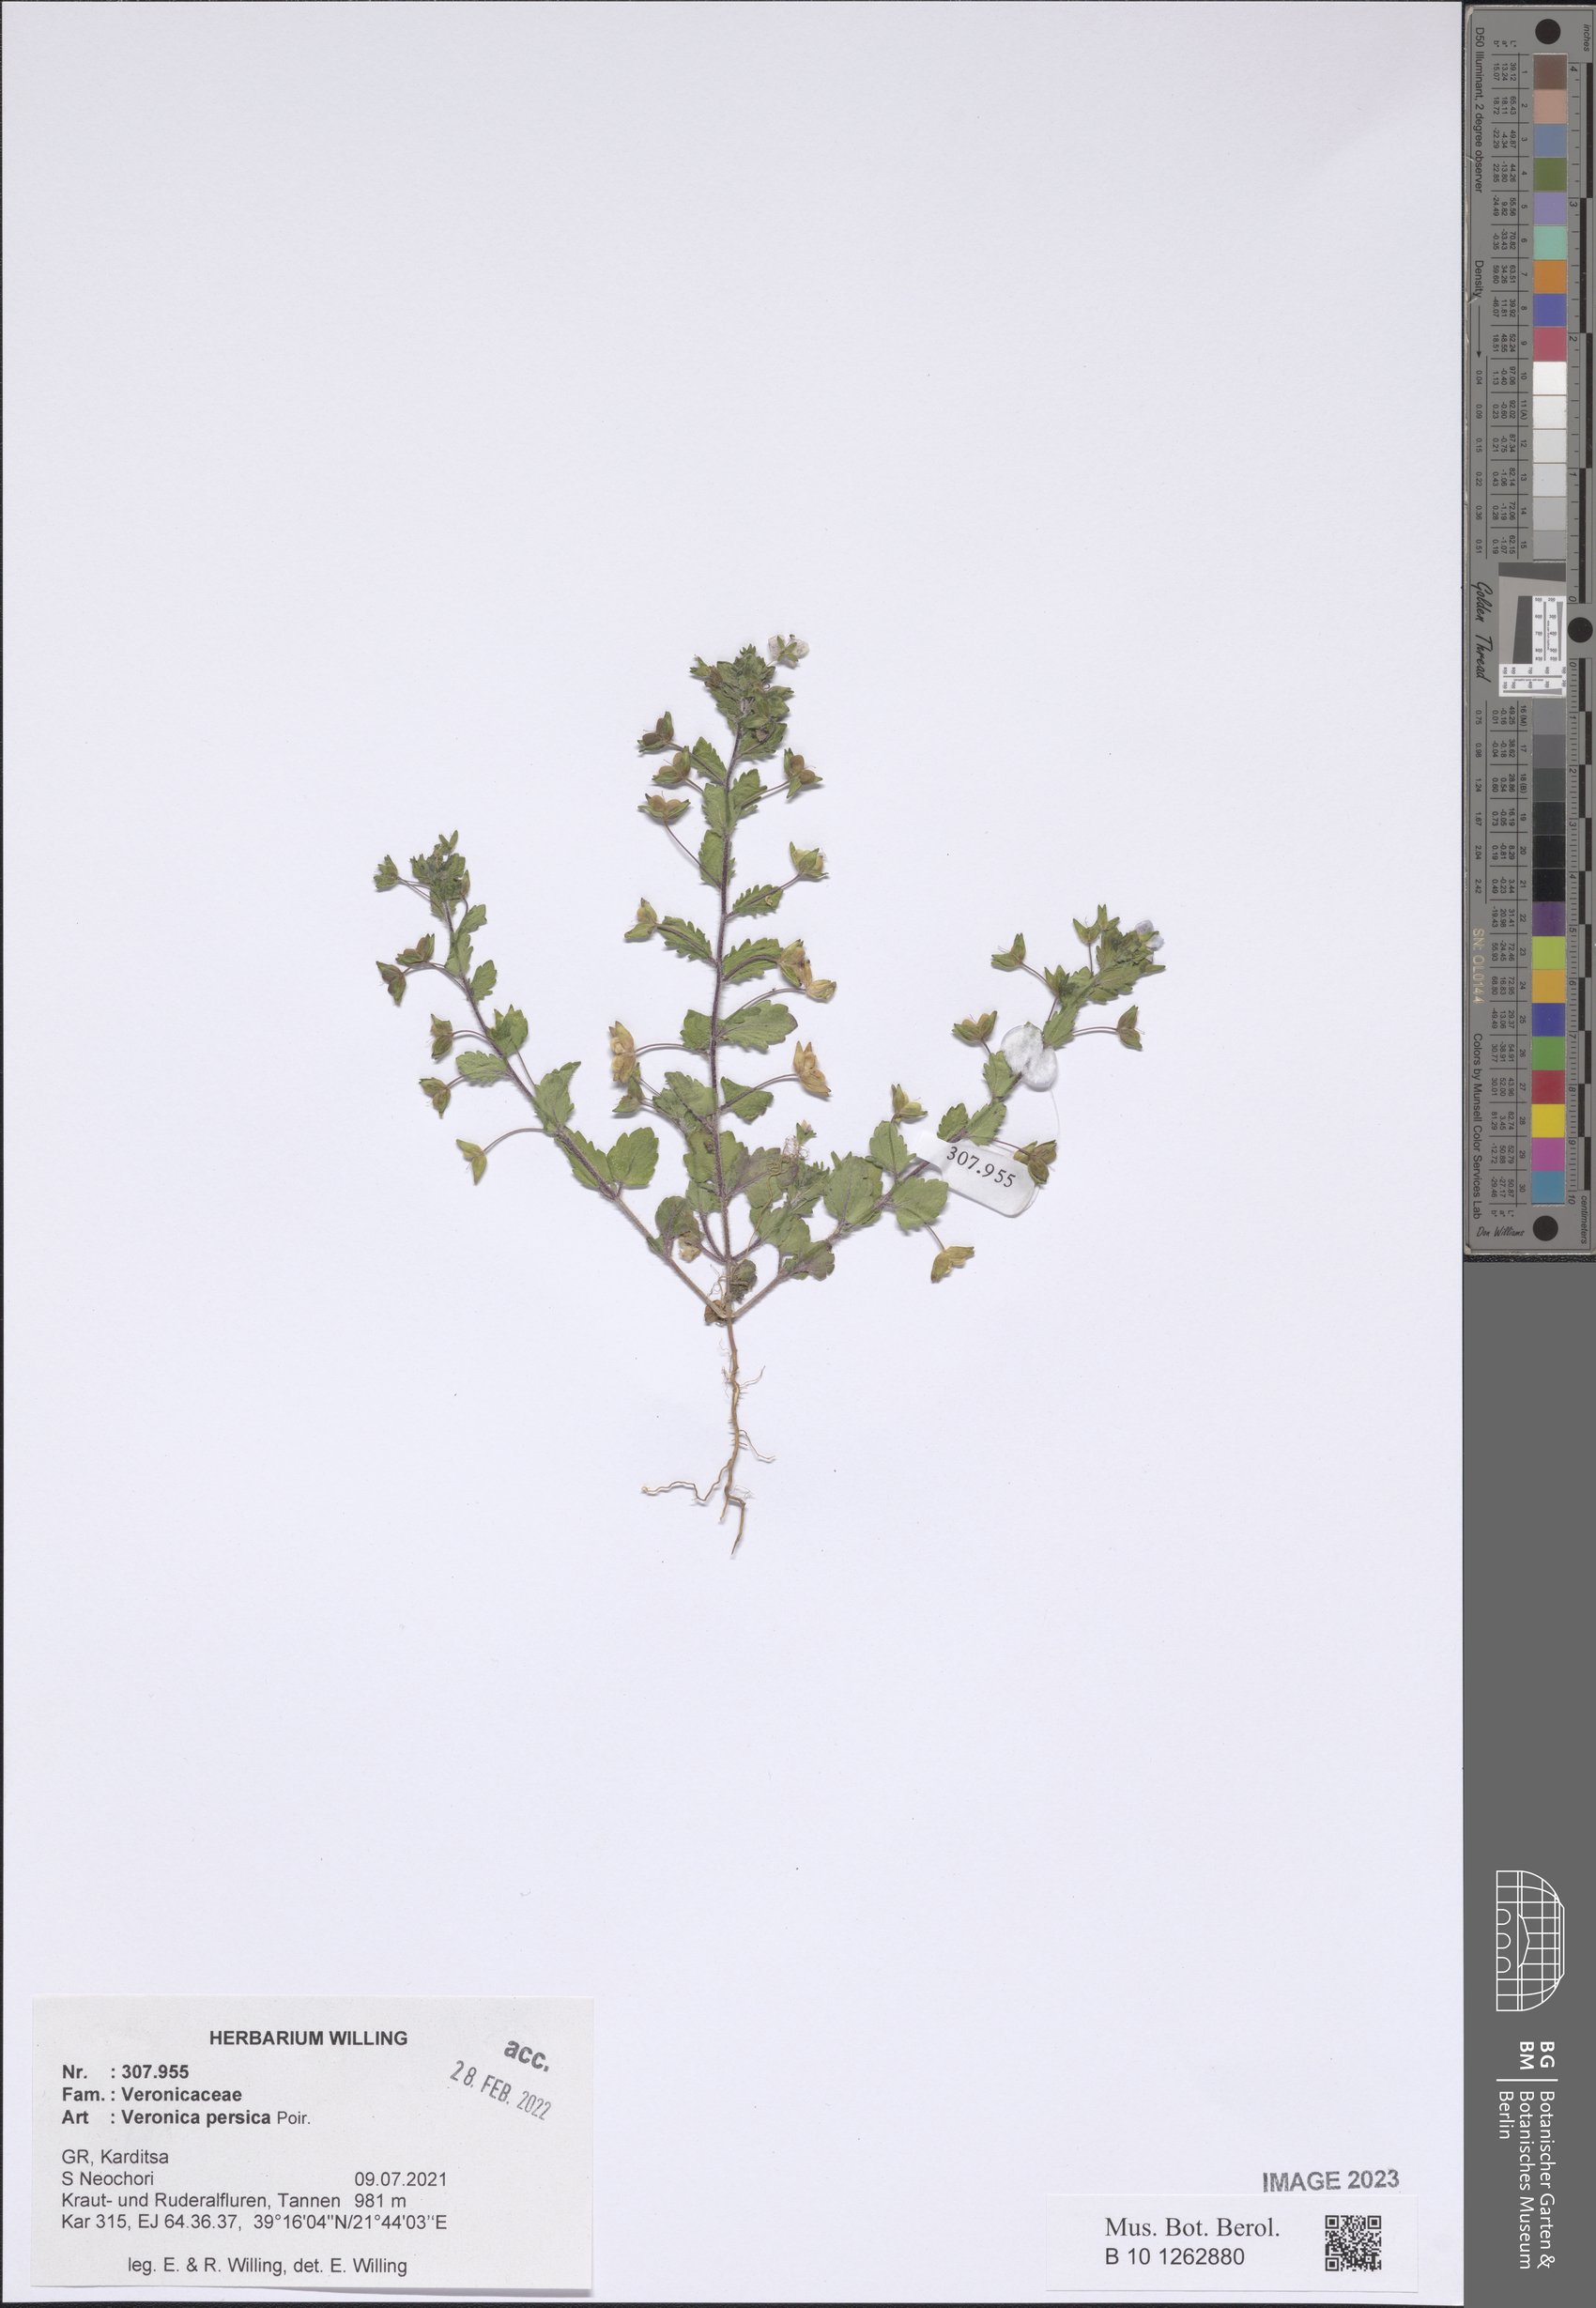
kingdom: Plantae
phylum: Tracheophyta
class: Magnoliopsida
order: Lamiales
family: Plantaginaceae
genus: Veronica
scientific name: Veronica persica
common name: Common field-speedwell
